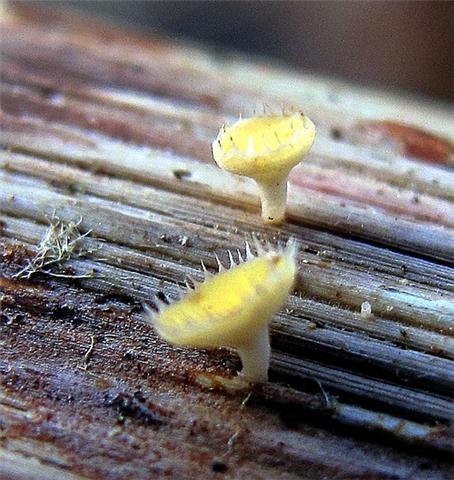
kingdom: Fungi
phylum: Ascomycota
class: Leotiomycetes
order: Helotiales
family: Helotiaceae
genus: Cyathicula
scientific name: Cyathicula coronata
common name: krone-stilkskive
